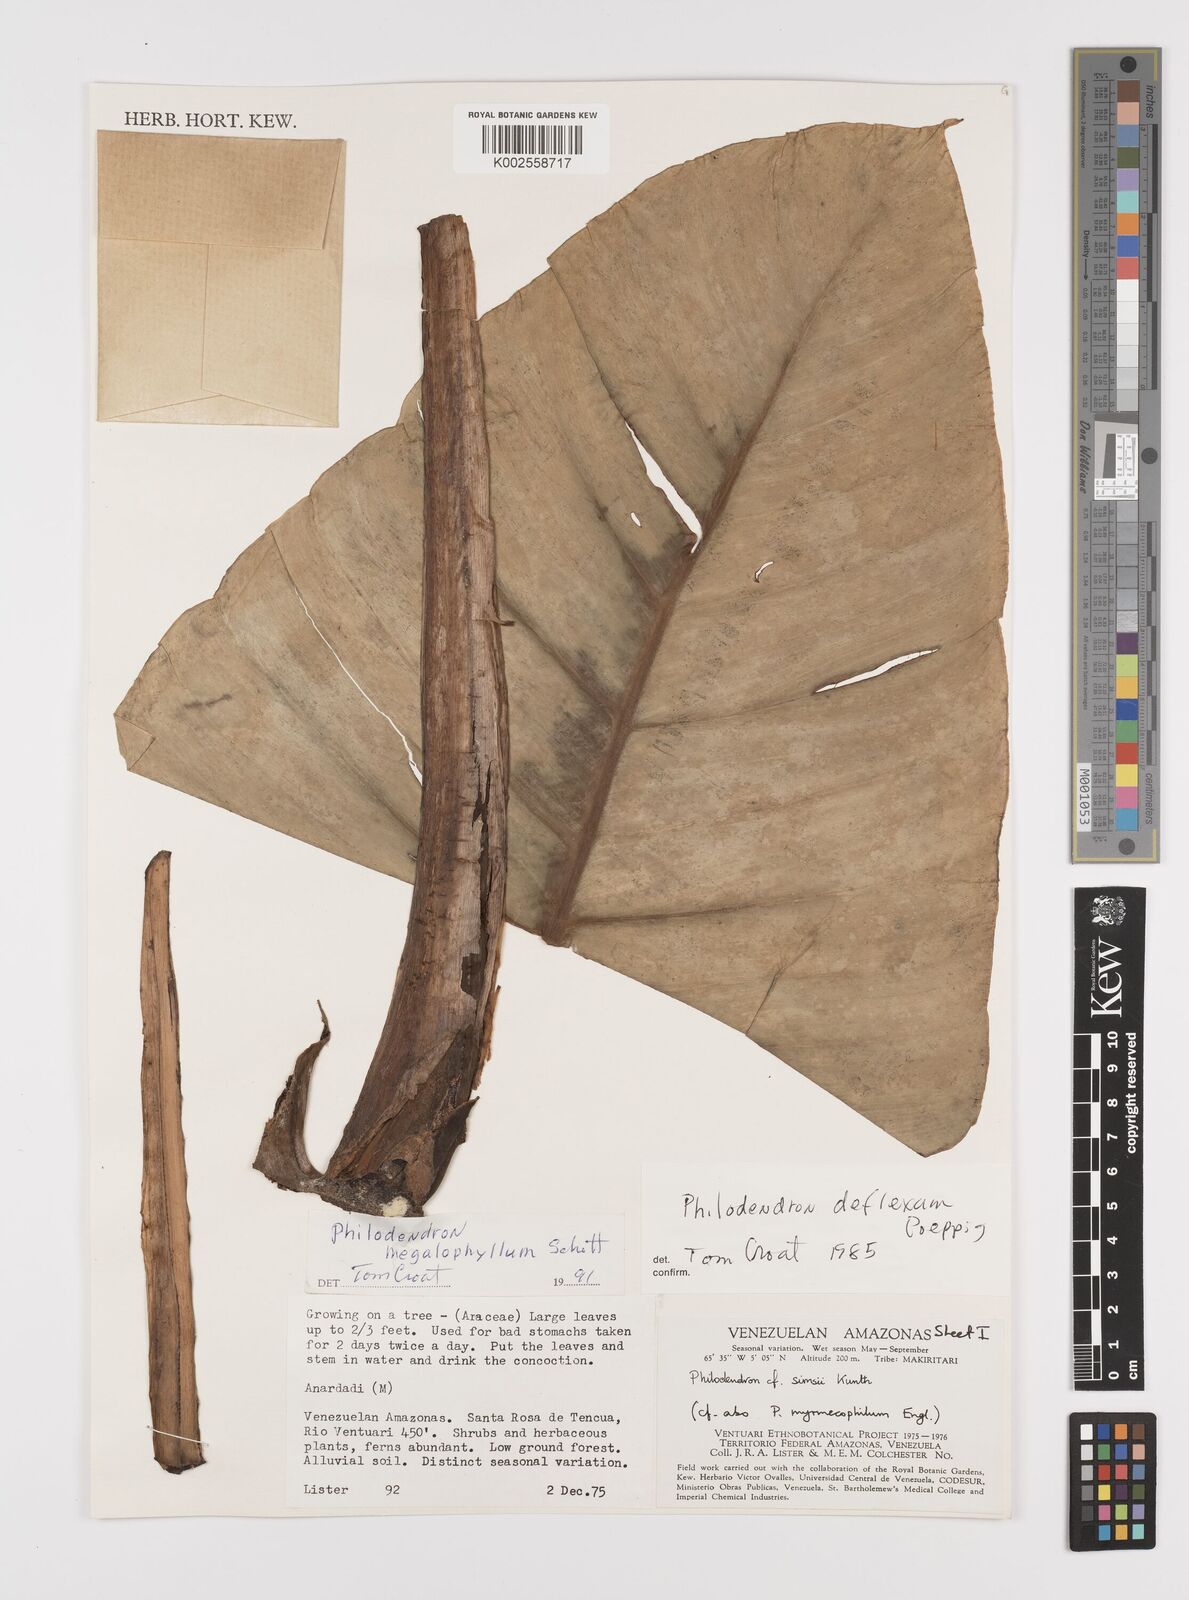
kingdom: Plantae
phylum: Tracheophyta
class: Liliopsida
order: Alismatales
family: Araceae
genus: Philodendron
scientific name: Philodendron deflexum
